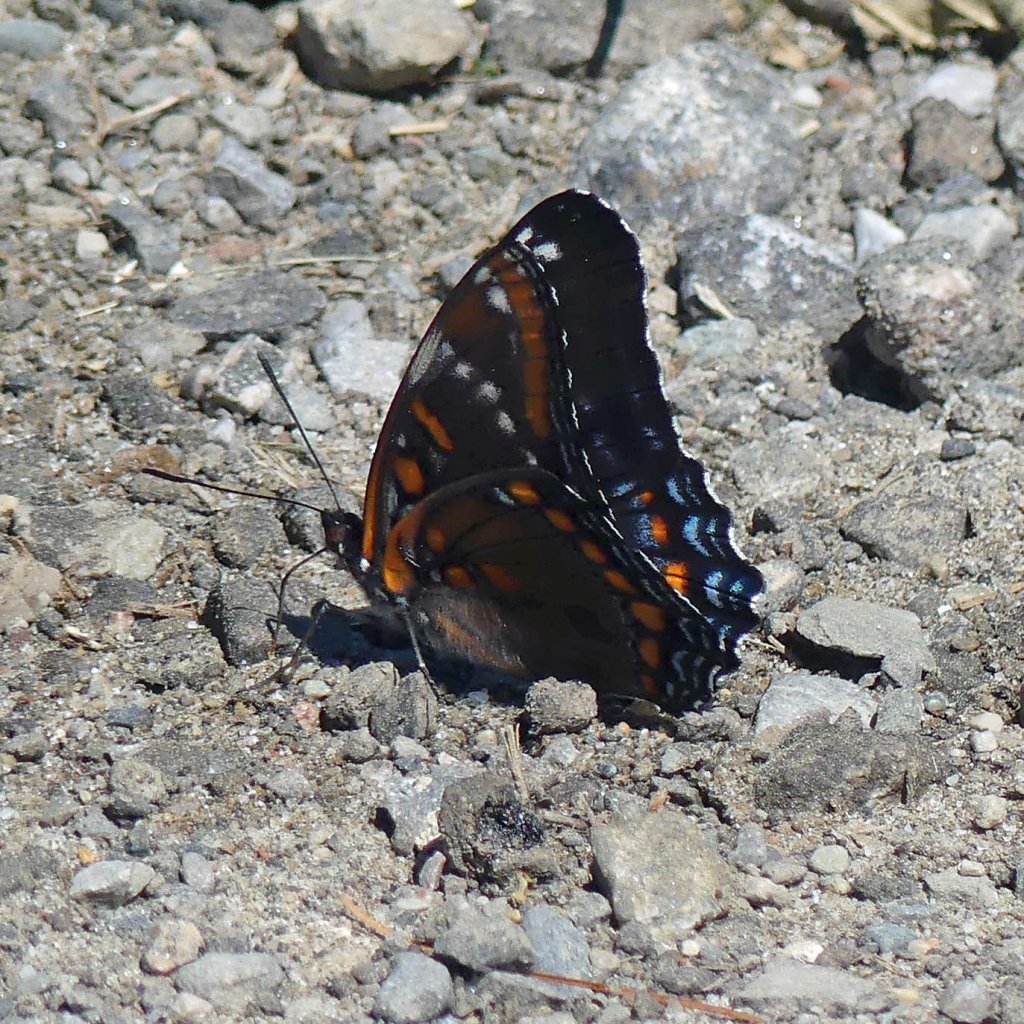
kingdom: Animalia
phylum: Arthropoda
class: Insecta
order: Lepidoptera
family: Nymphalidae
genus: Limenitis
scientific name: Limenitis
